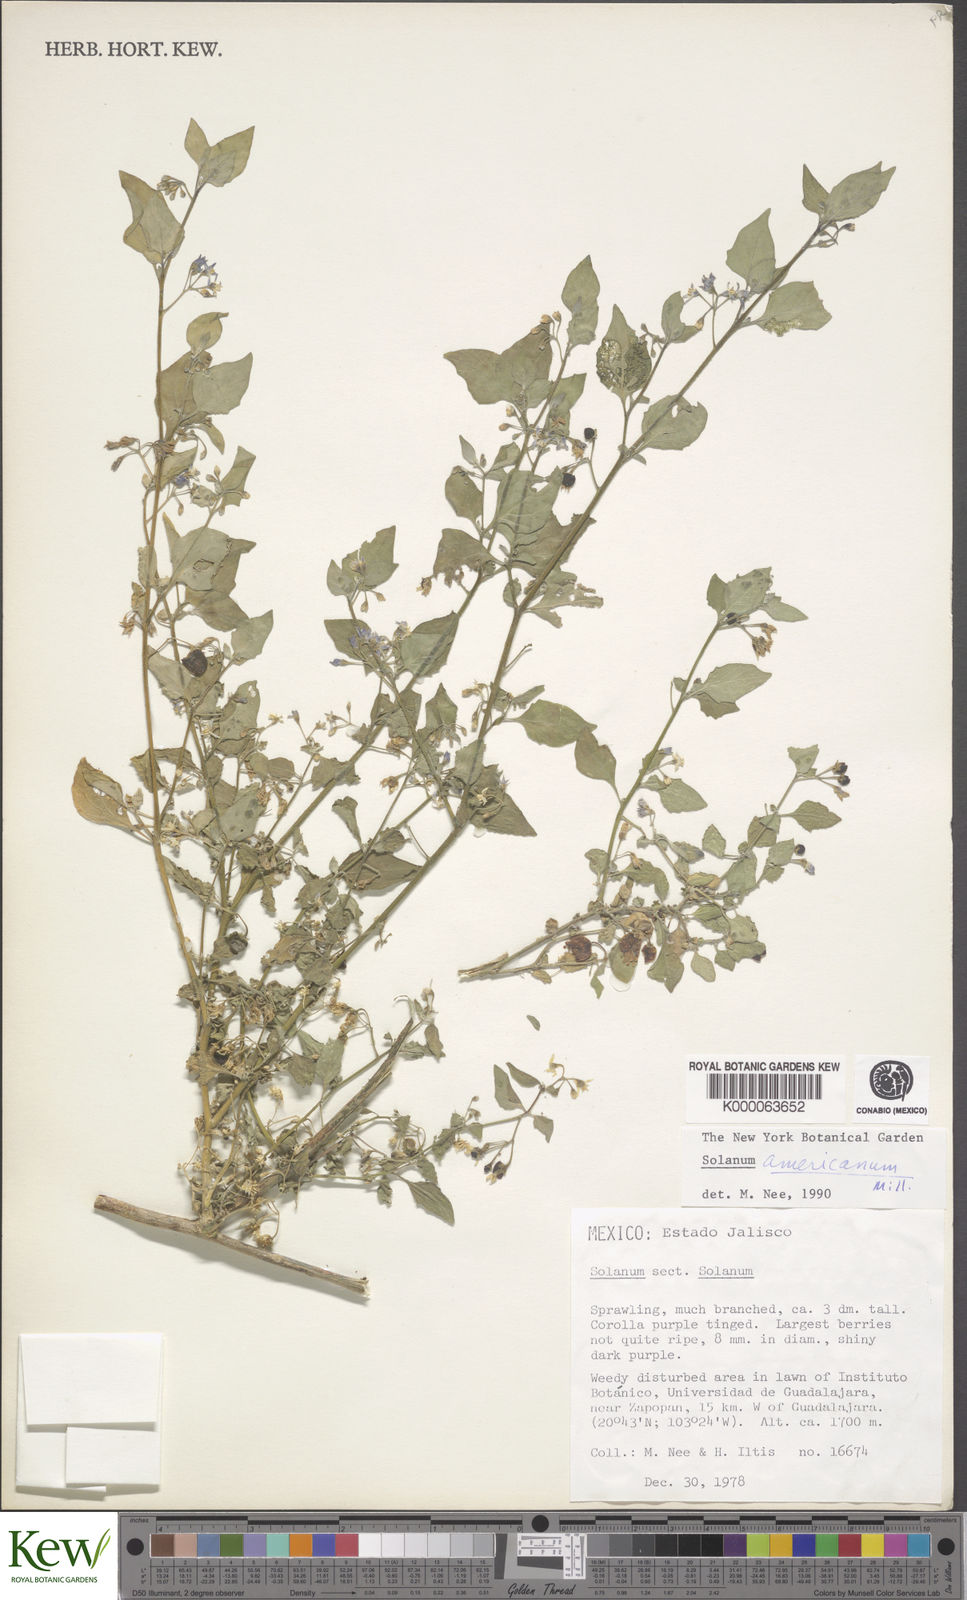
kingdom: Plantae
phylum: Tracheophyta
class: Magnoliopsida
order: Solanales
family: Solanaceae
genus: Solanum
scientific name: Solanum americanum
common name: American black nightshade
